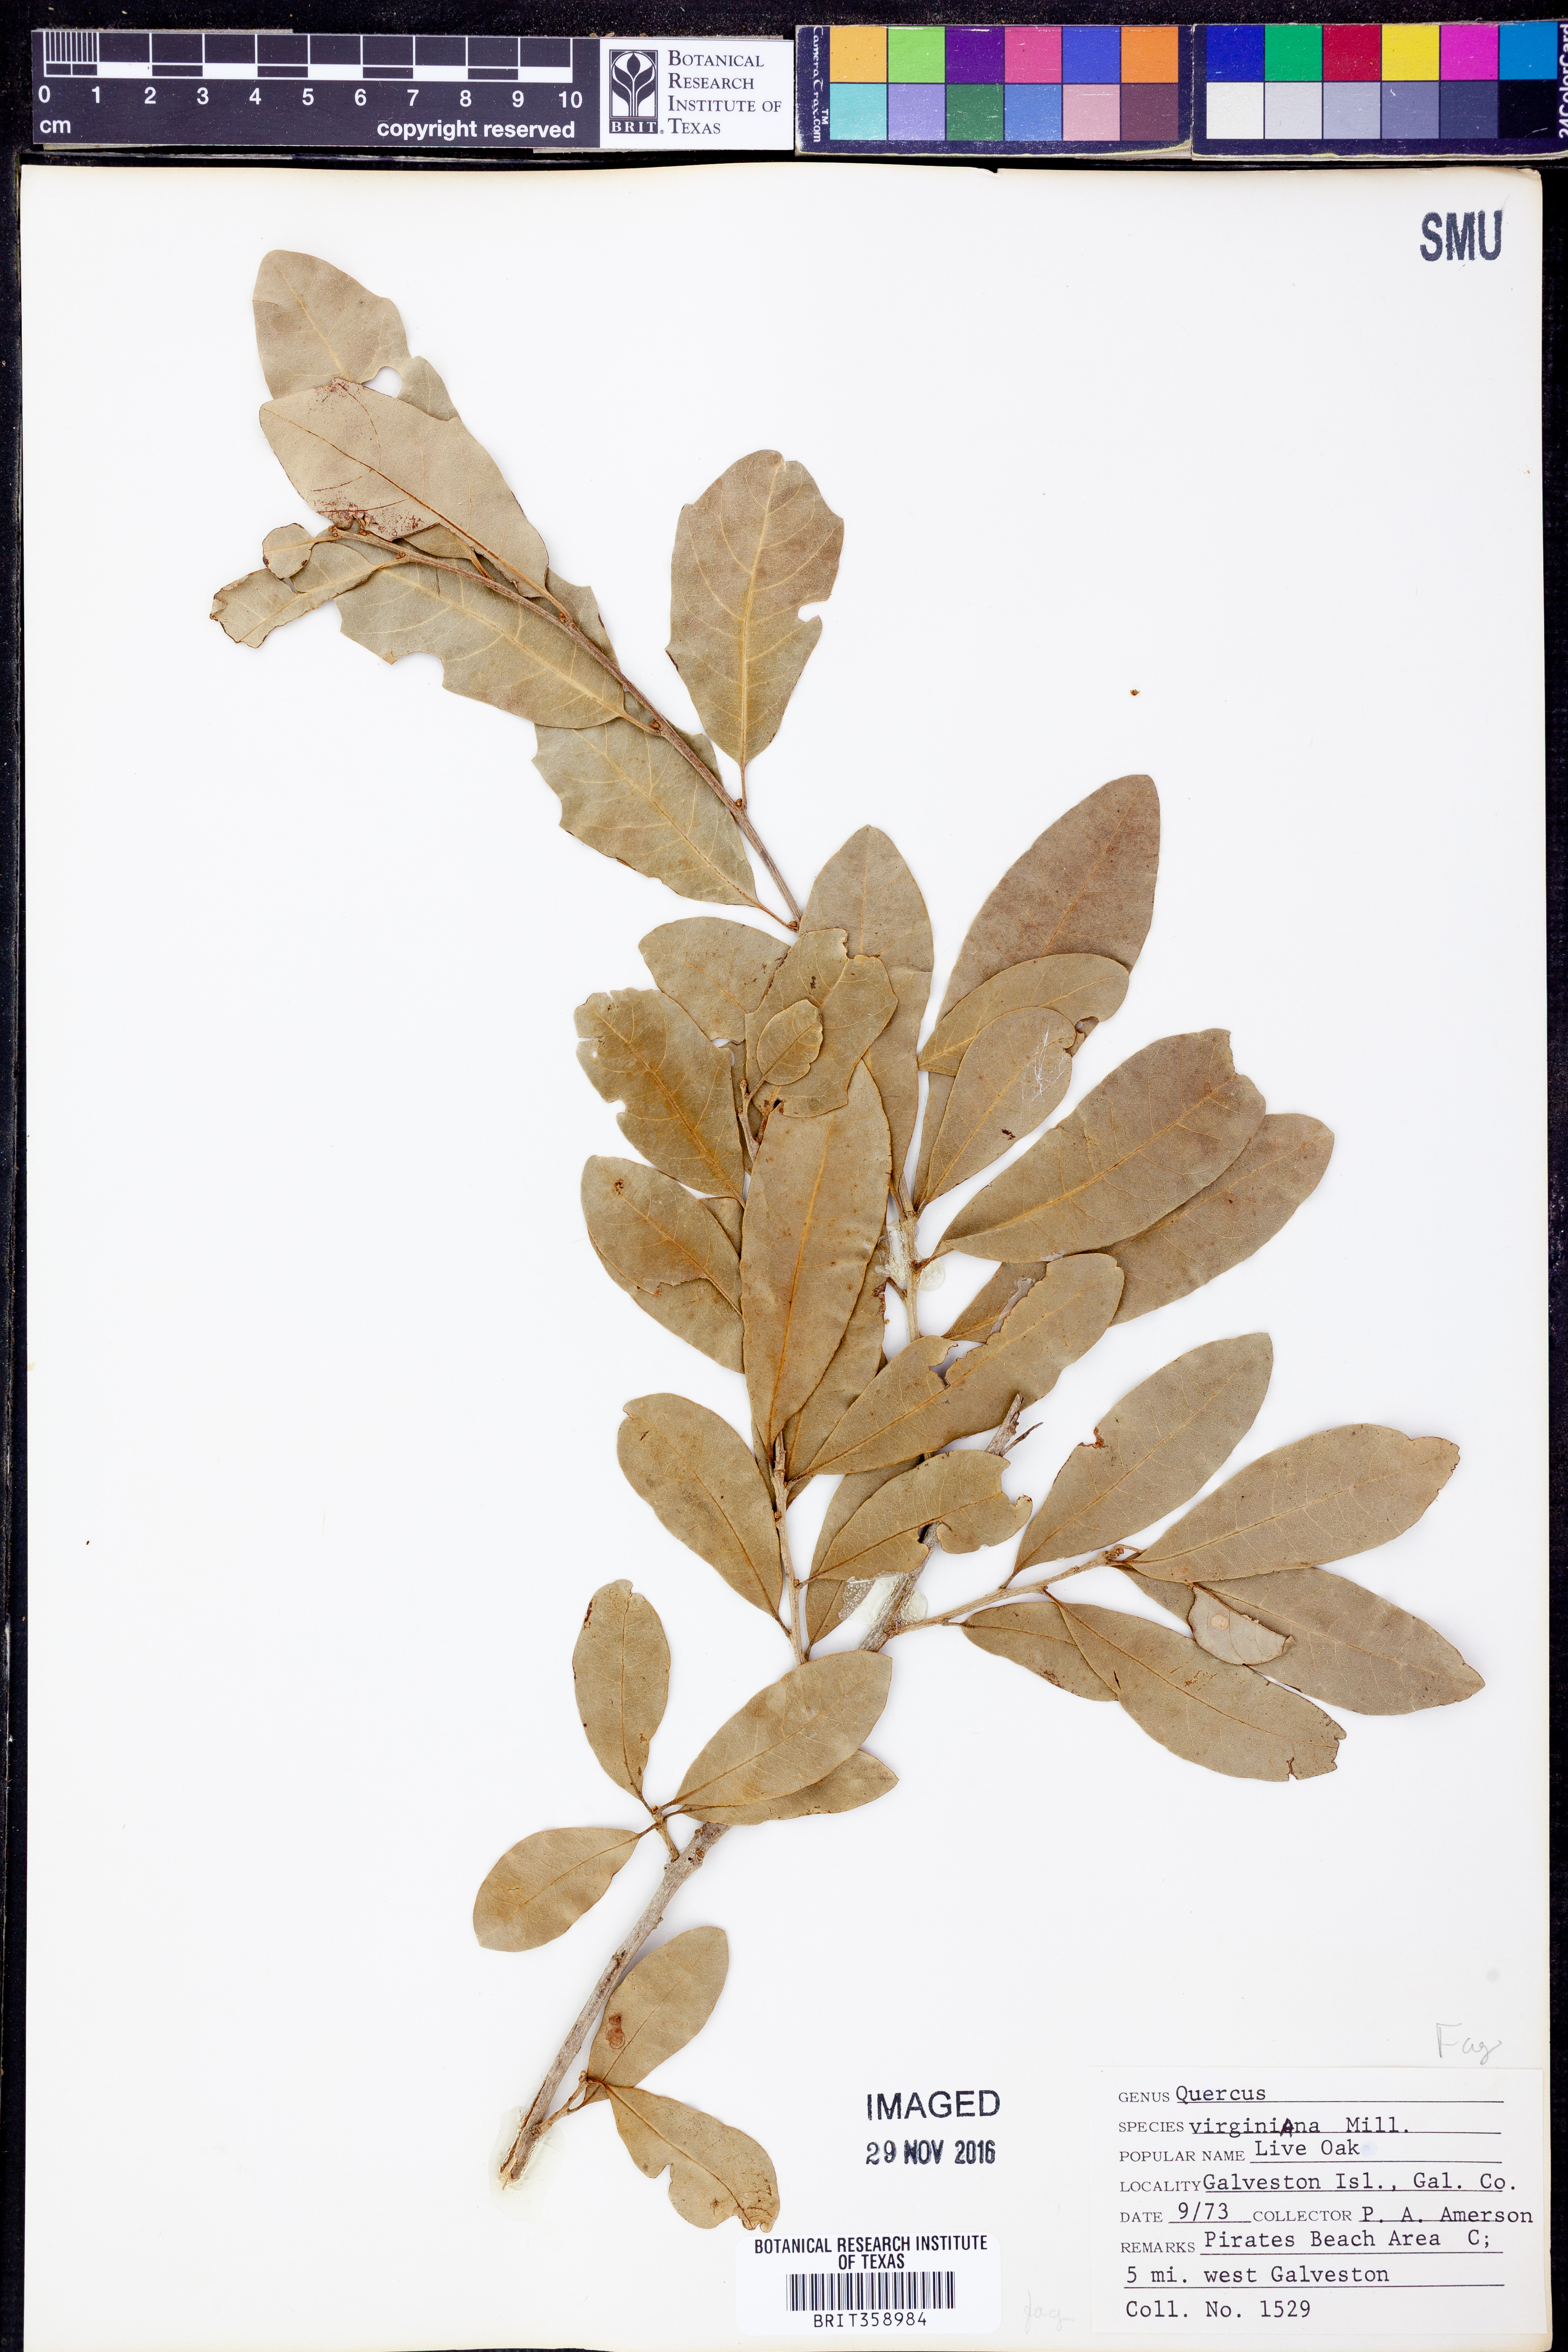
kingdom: Plantae
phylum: Tracheophyta
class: Magnoliopsida
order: Fagales
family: Fagaceae
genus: Quercus
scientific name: Quercus virginiana
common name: Southern live oak
